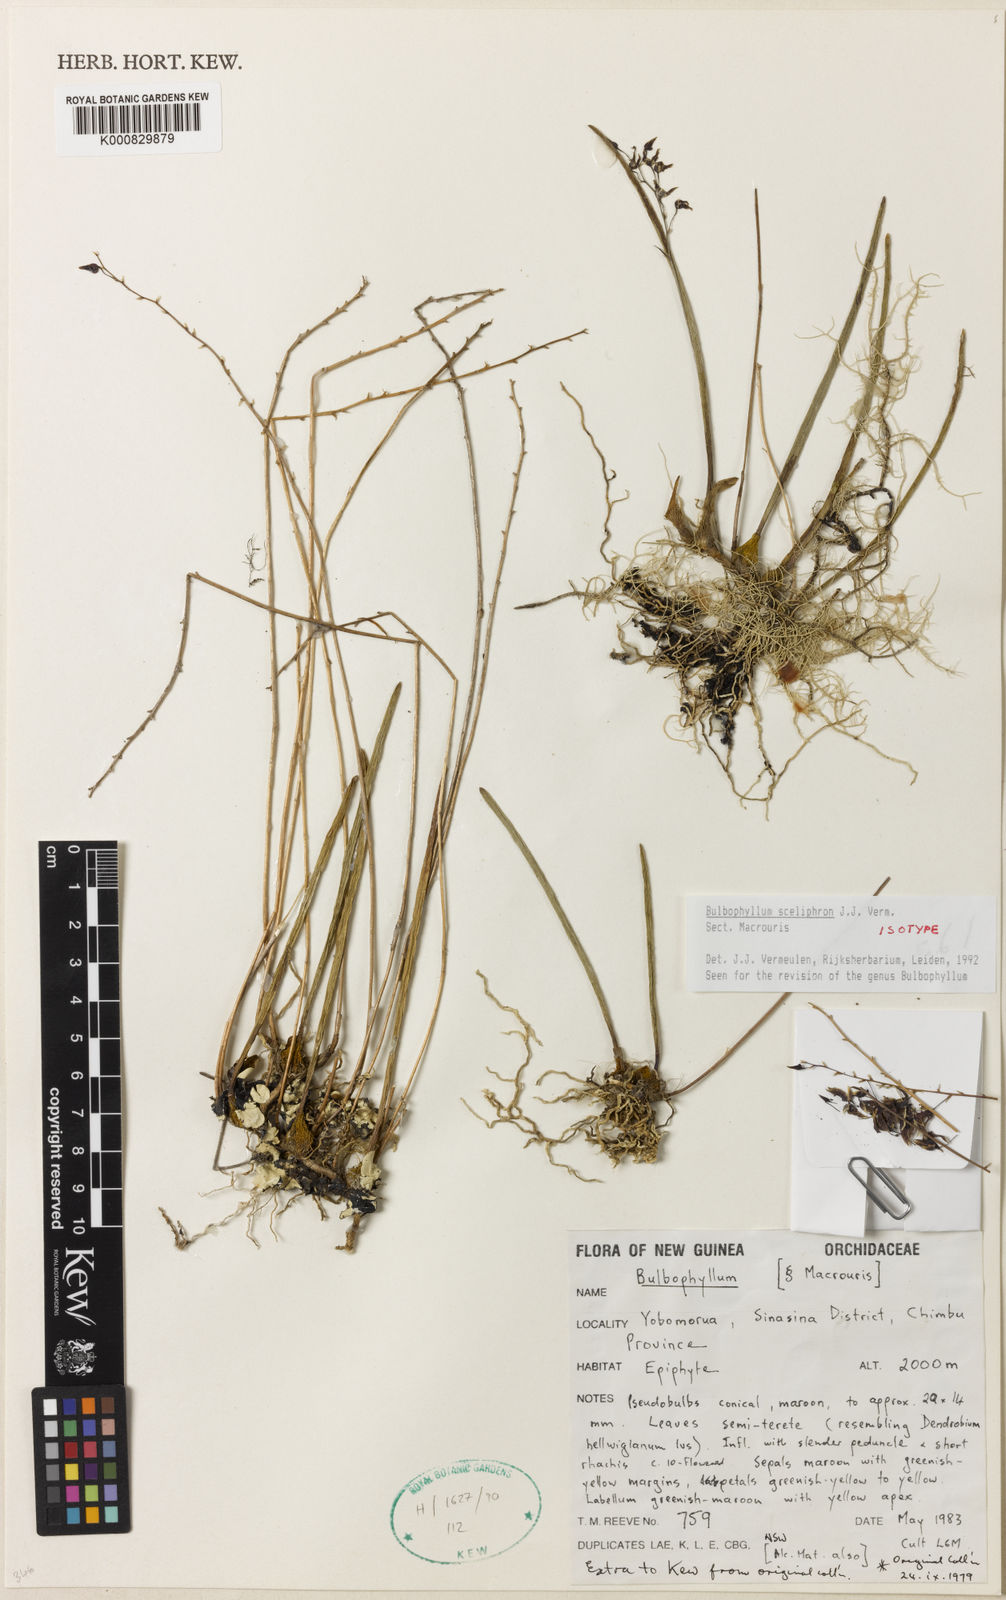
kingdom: Plantae
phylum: Tracheophyta
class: Liliopsida
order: Asparagales
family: Orchidaceae
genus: Bulbophyllum
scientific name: Bulbophyllum
